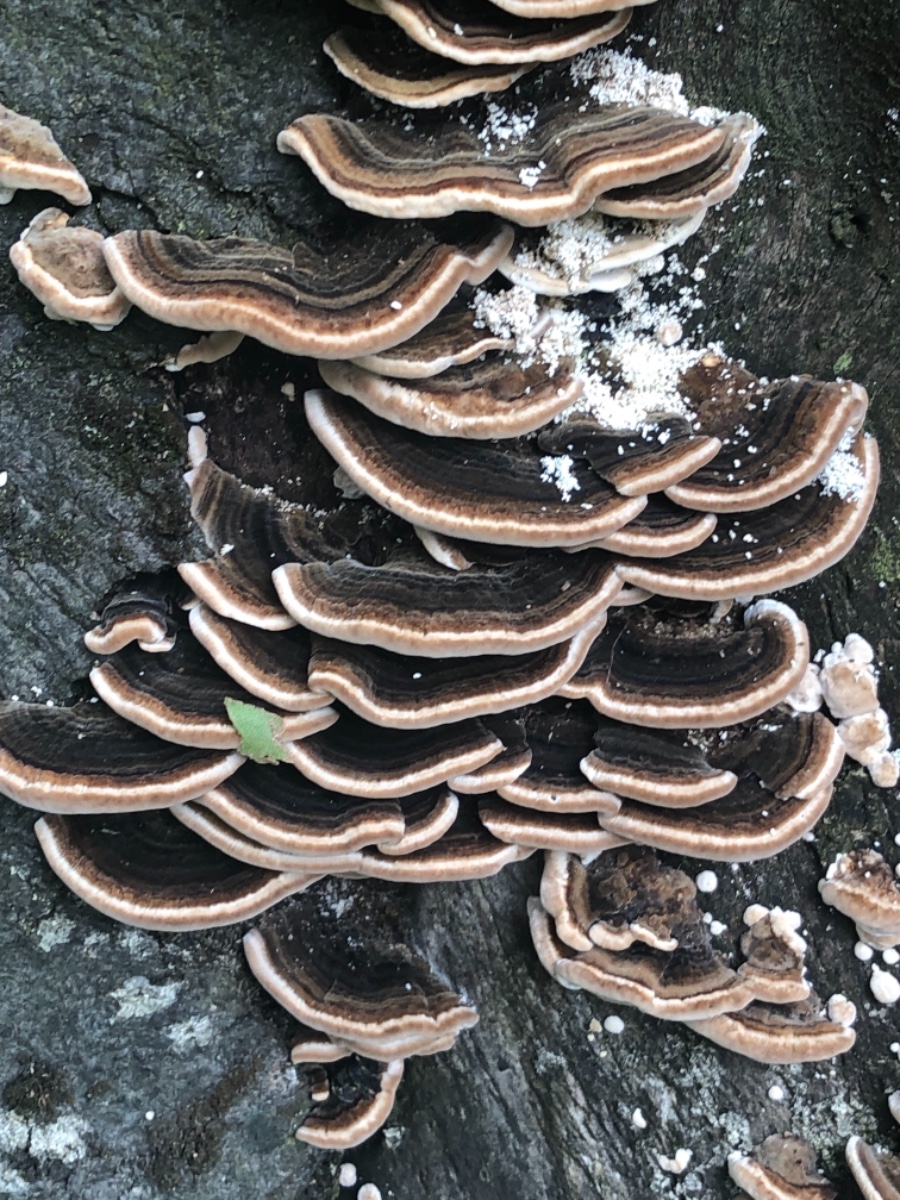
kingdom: Fungi
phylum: Basidiomycota
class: Agaricomycetes
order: Polyporales
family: Polyporaceae
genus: Trametes
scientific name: Trametes versicolor
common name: broget læderporesvamp
